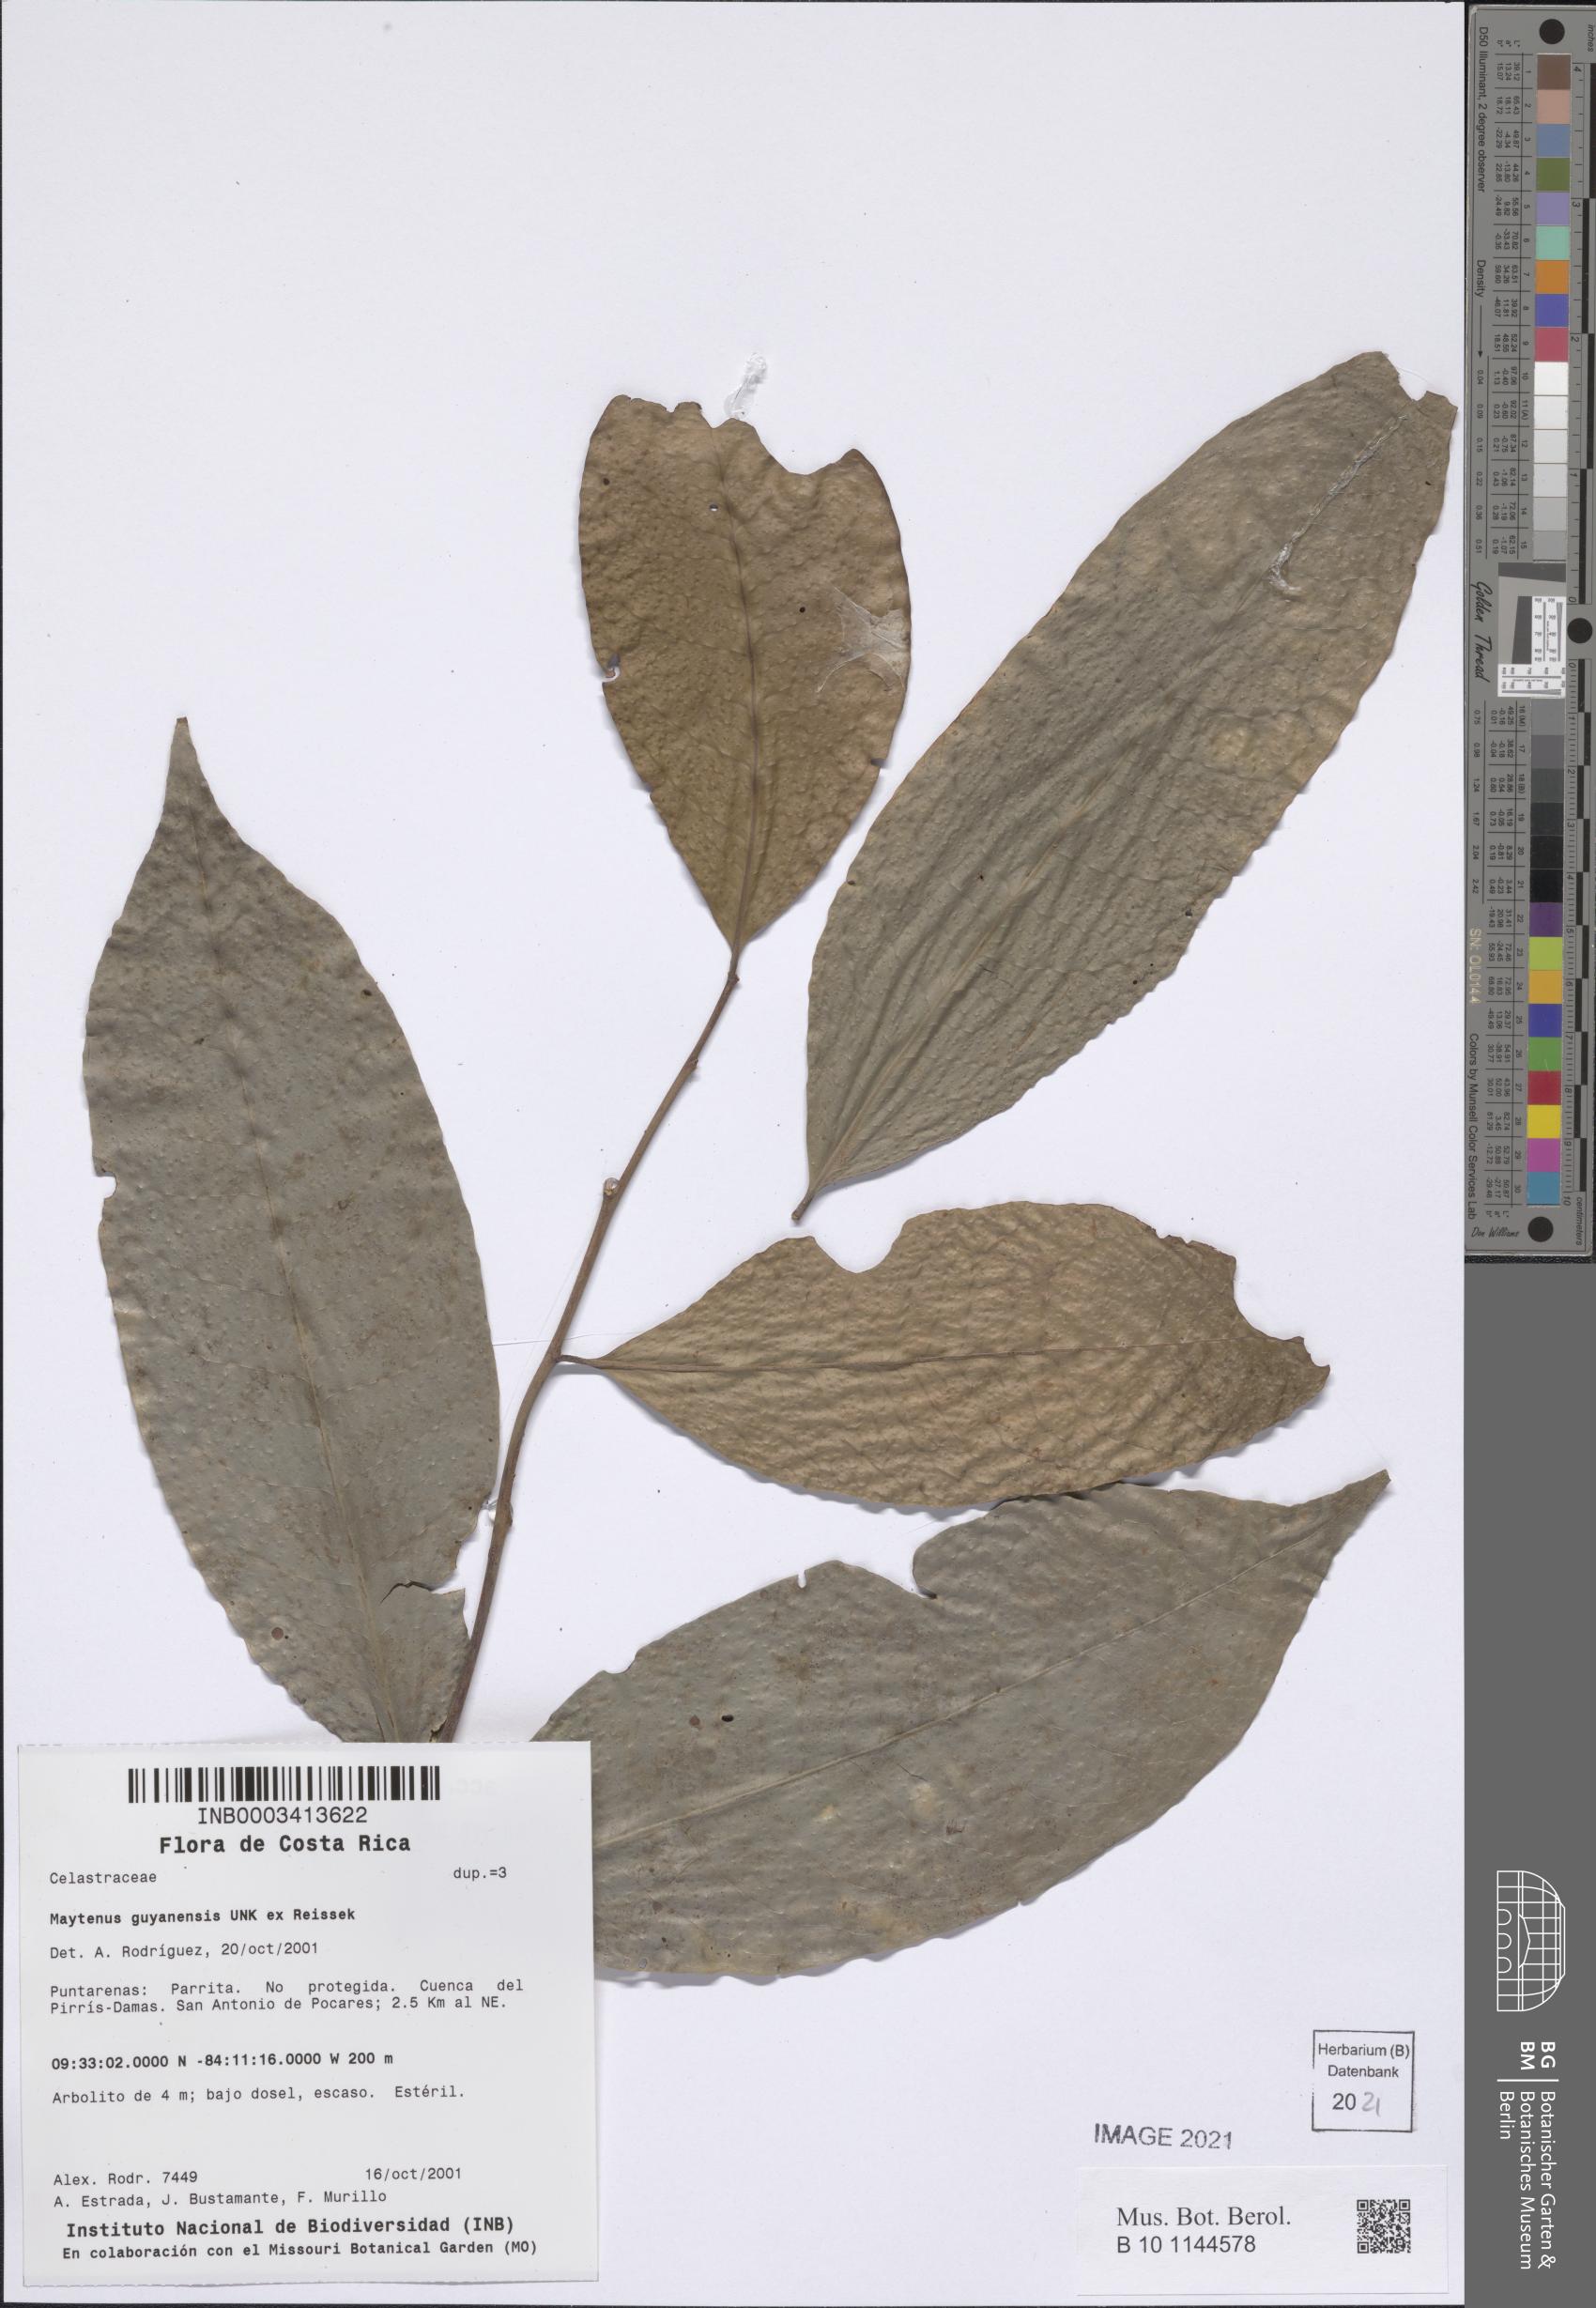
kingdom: Plantae
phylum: Tracheophyta
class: Magnoliopsida
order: Celastrales
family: Celastraceae
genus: Monteverdia
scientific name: Monteverdia guyanensis
